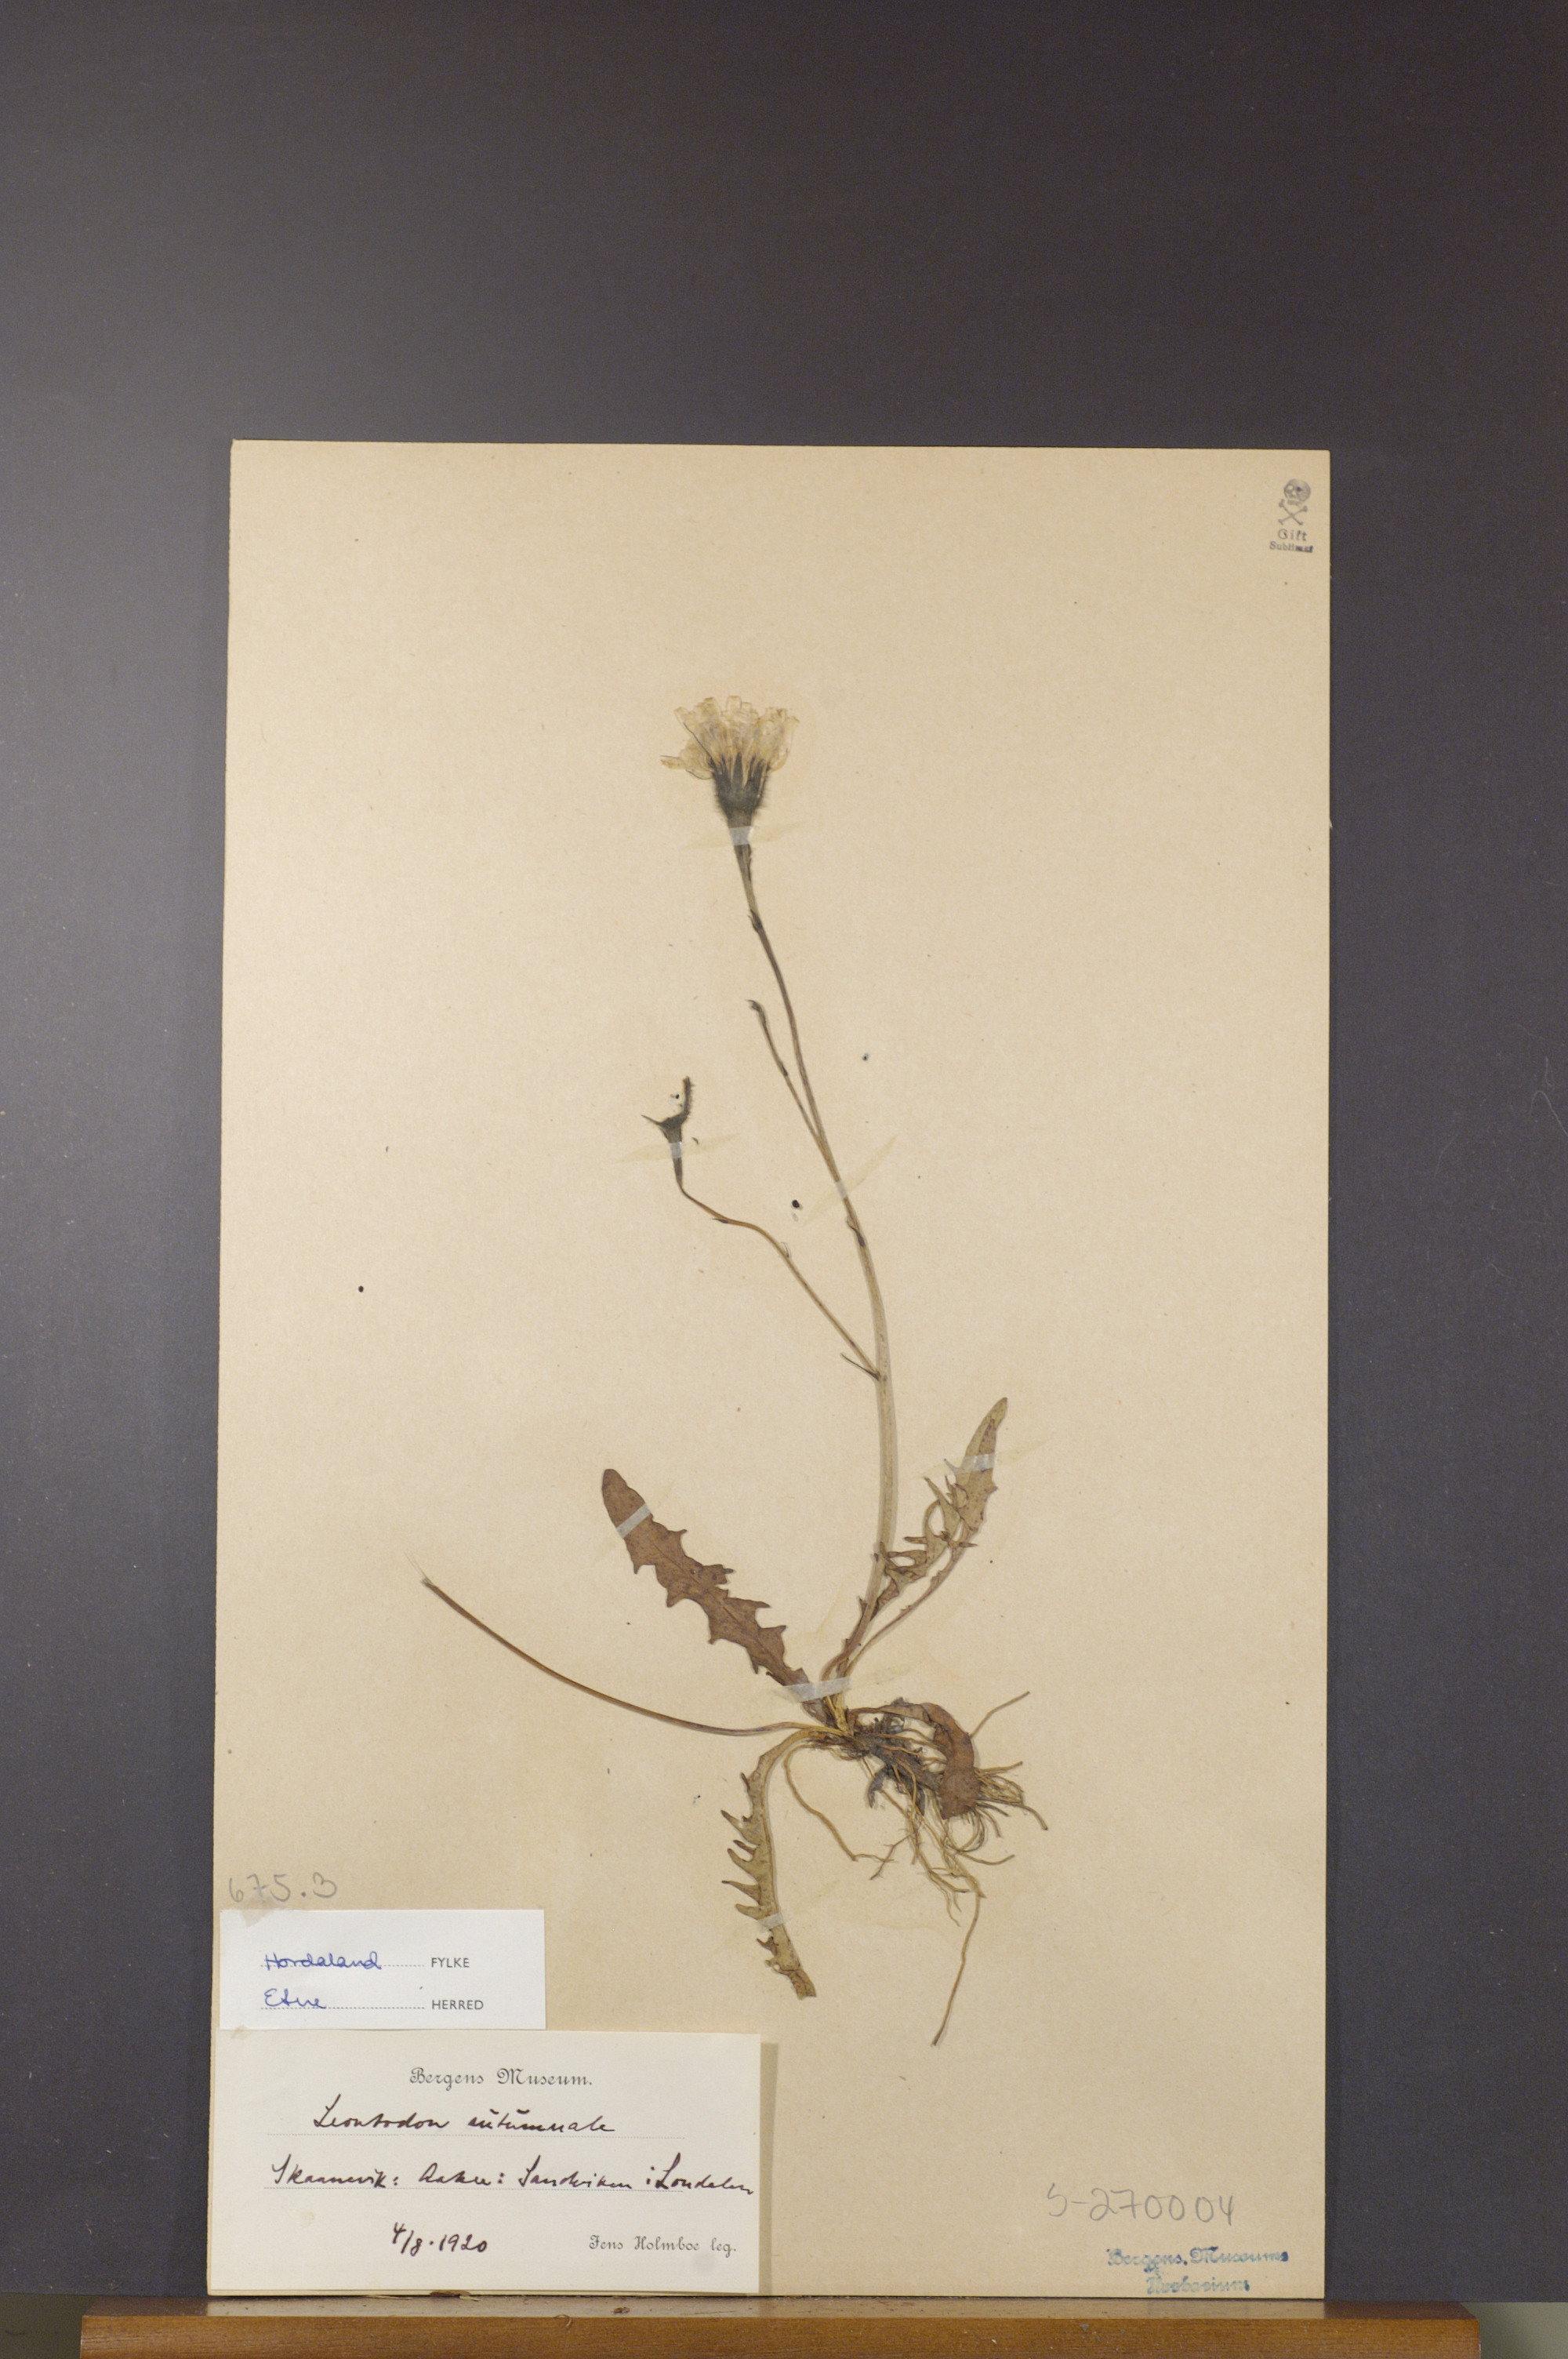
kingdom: Plantae
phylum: Tracheophyta
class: Magnoliopsida
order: Asterales
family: Asteraceae
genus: Scorzoneroides
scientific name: Scorzoneroides autumnalis
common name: Autumn hawkbit
